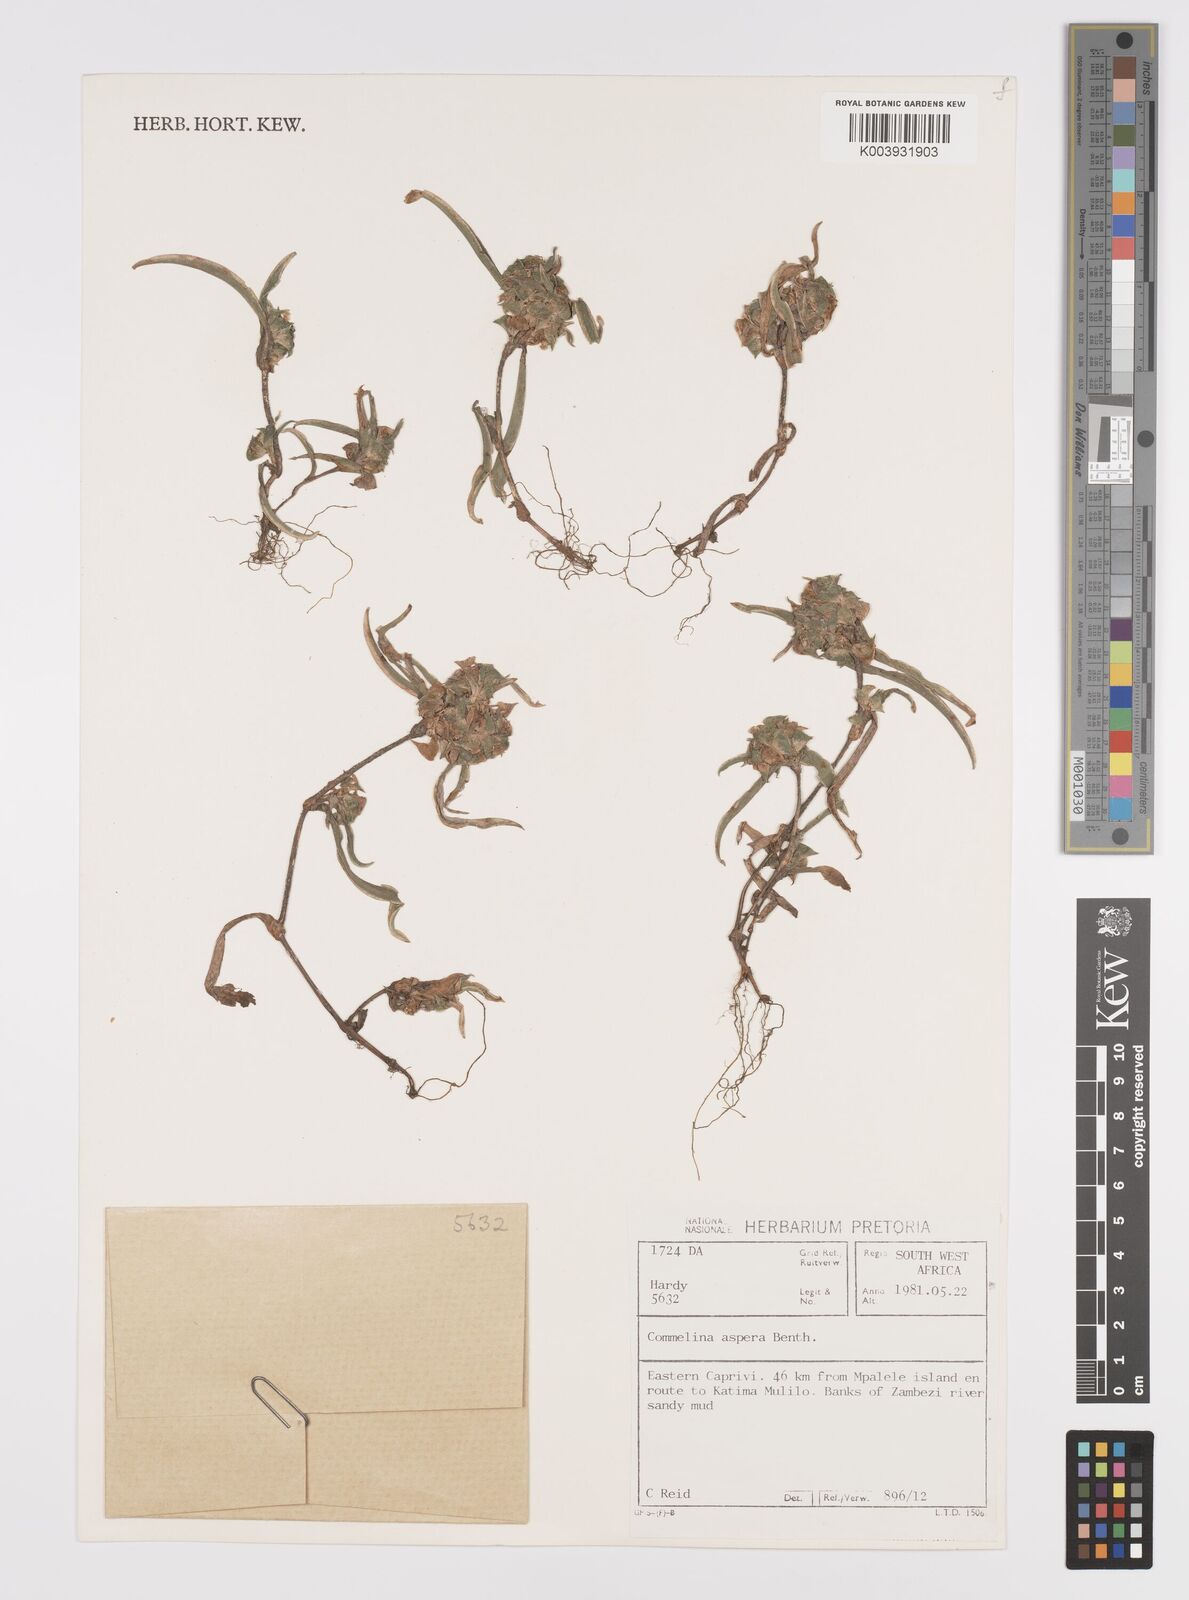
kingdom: Plantae
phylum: Tracheophyta
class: Liliopsida
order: Commelinales
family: Commelinaceae
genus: Commelina
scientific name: Commelina aspera
